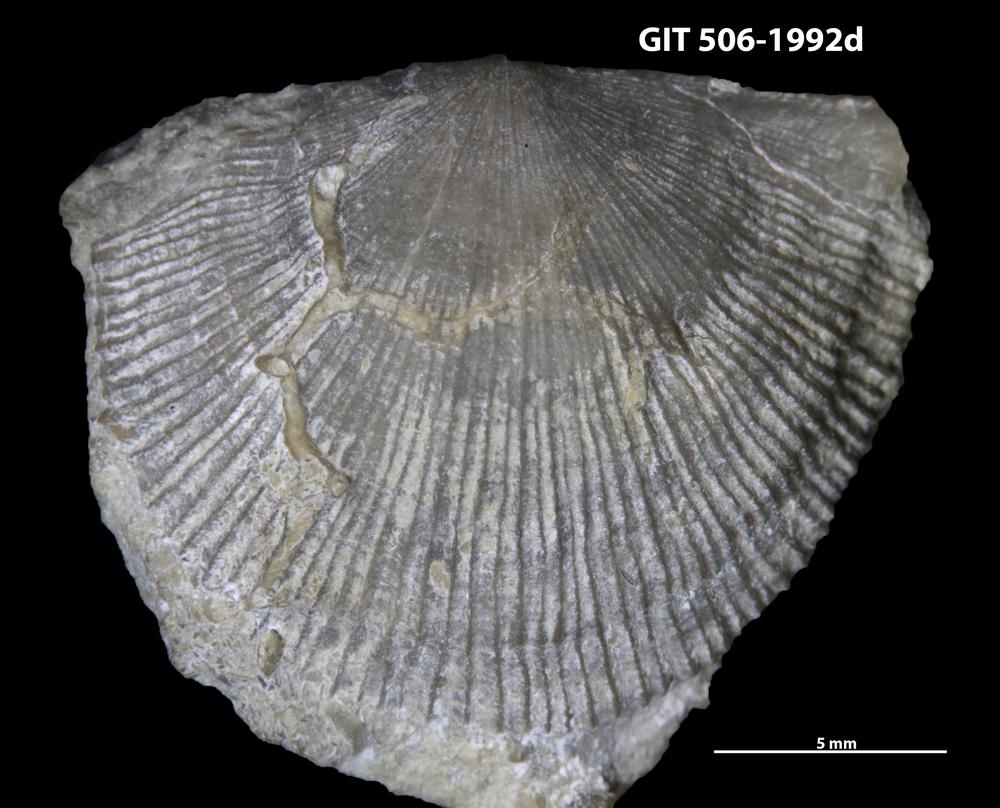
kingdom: Animalia
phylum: Brachiopoda
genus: Janiomya
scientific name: Janiomya Strophomena ornatella
